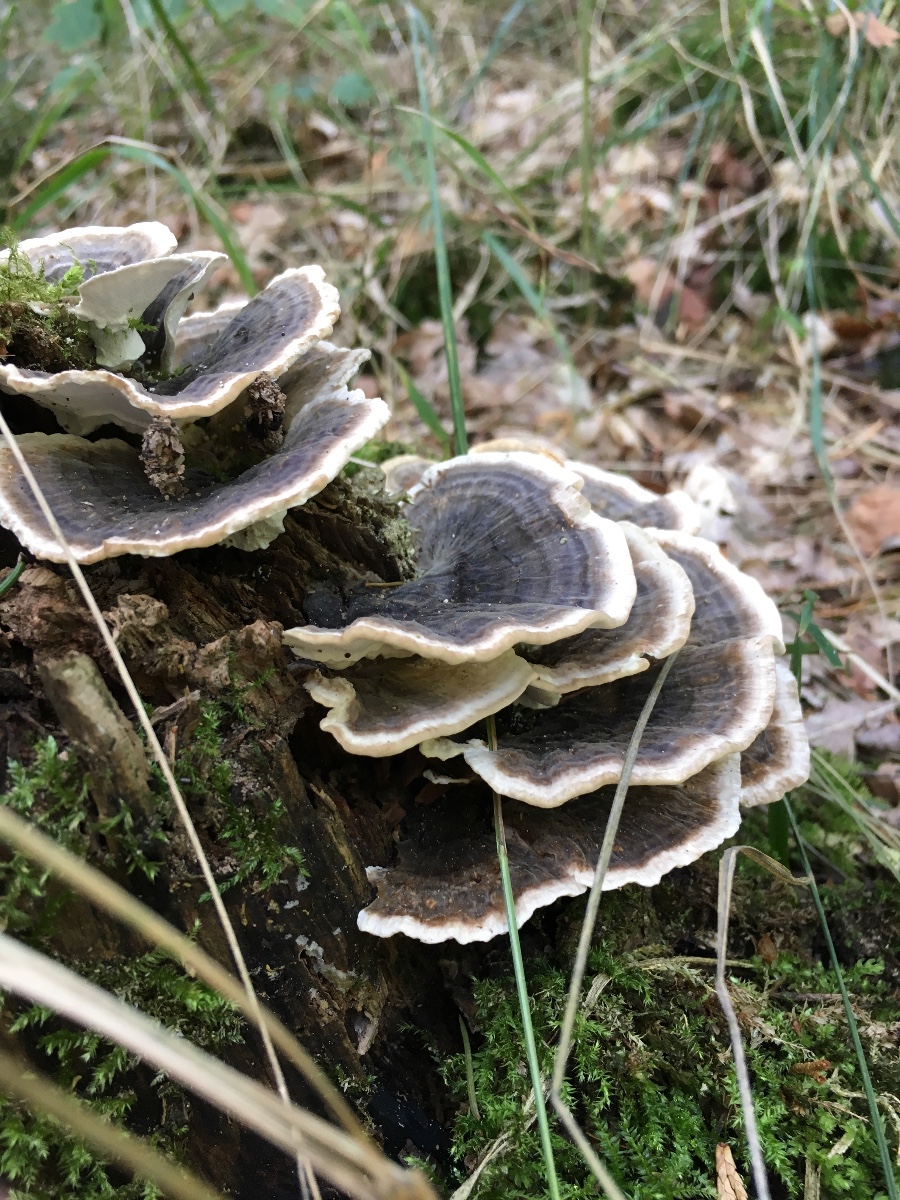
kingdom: Fungi
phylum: Basidiomycota
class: Agaricomycetes
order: Polyporales
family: Polyporaceae
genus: Trametes
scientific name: Trametes versicolor
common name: broget læderporesvamp
